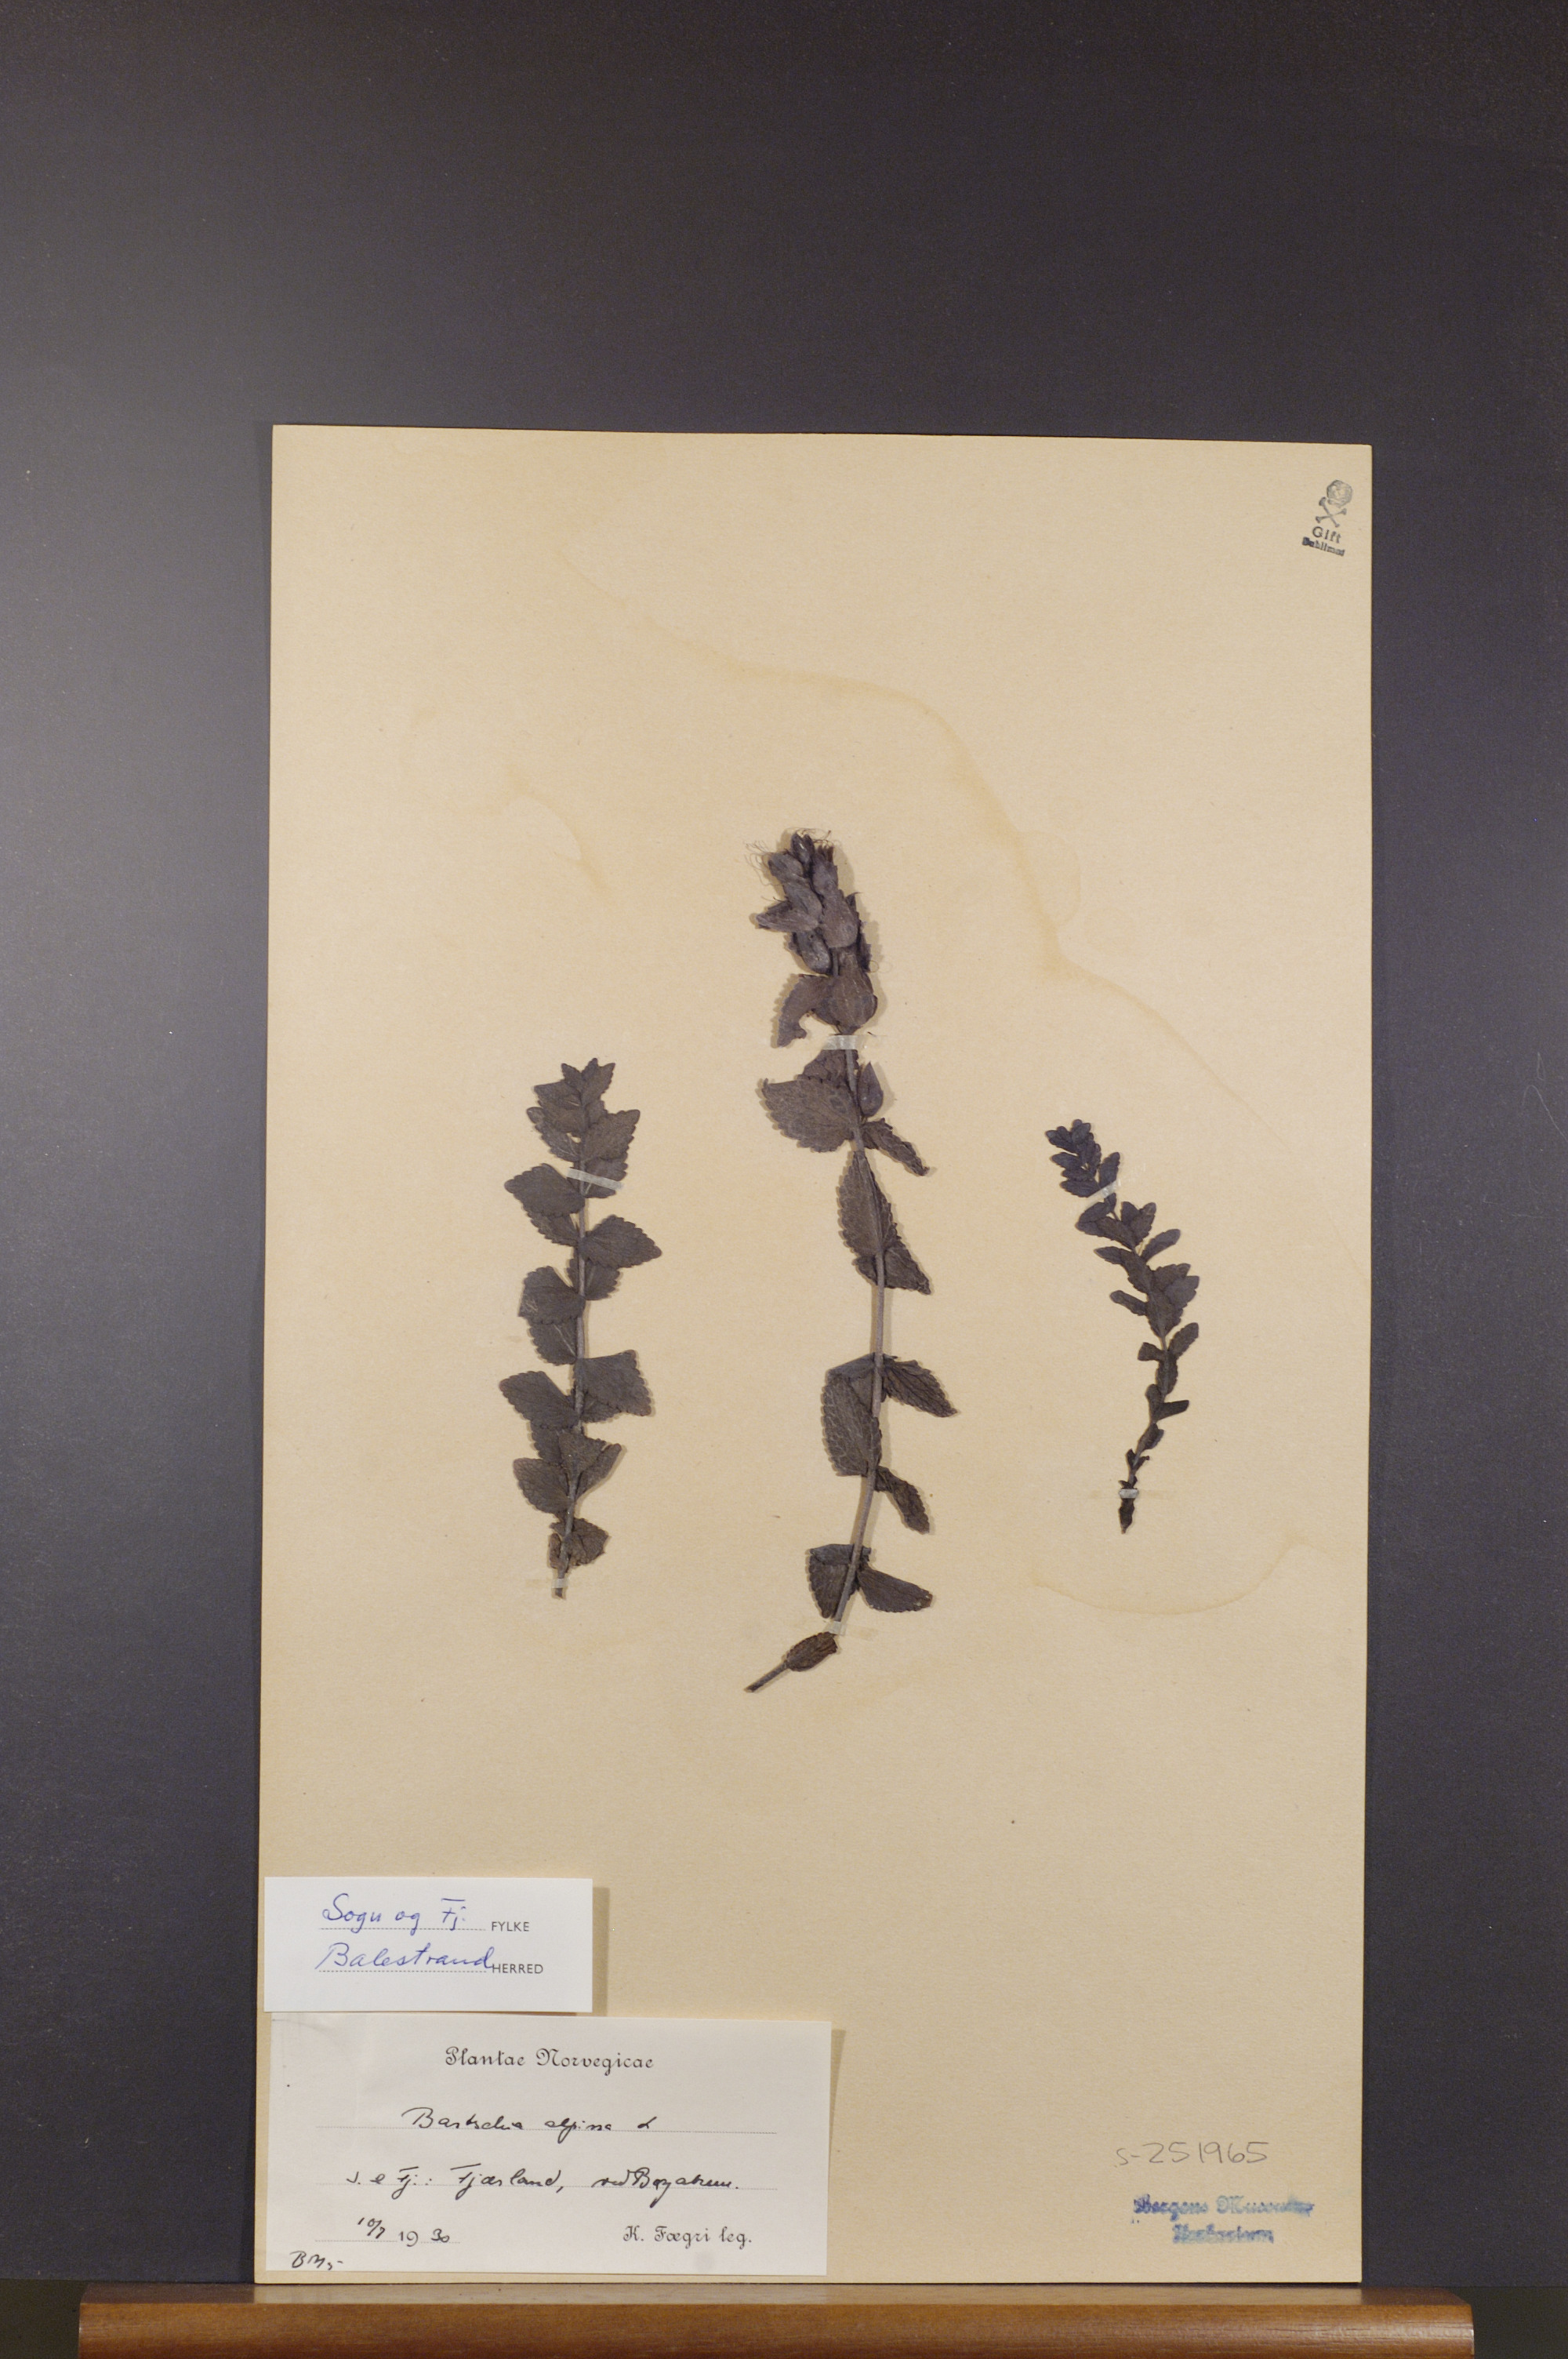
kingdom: Plantae
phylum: Tracheophyta
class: Magnoliopsida
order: Lamiales
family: Orobanchaceae
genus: Bartsia
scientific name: Bartsia alpina
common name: Alpine bartsia
